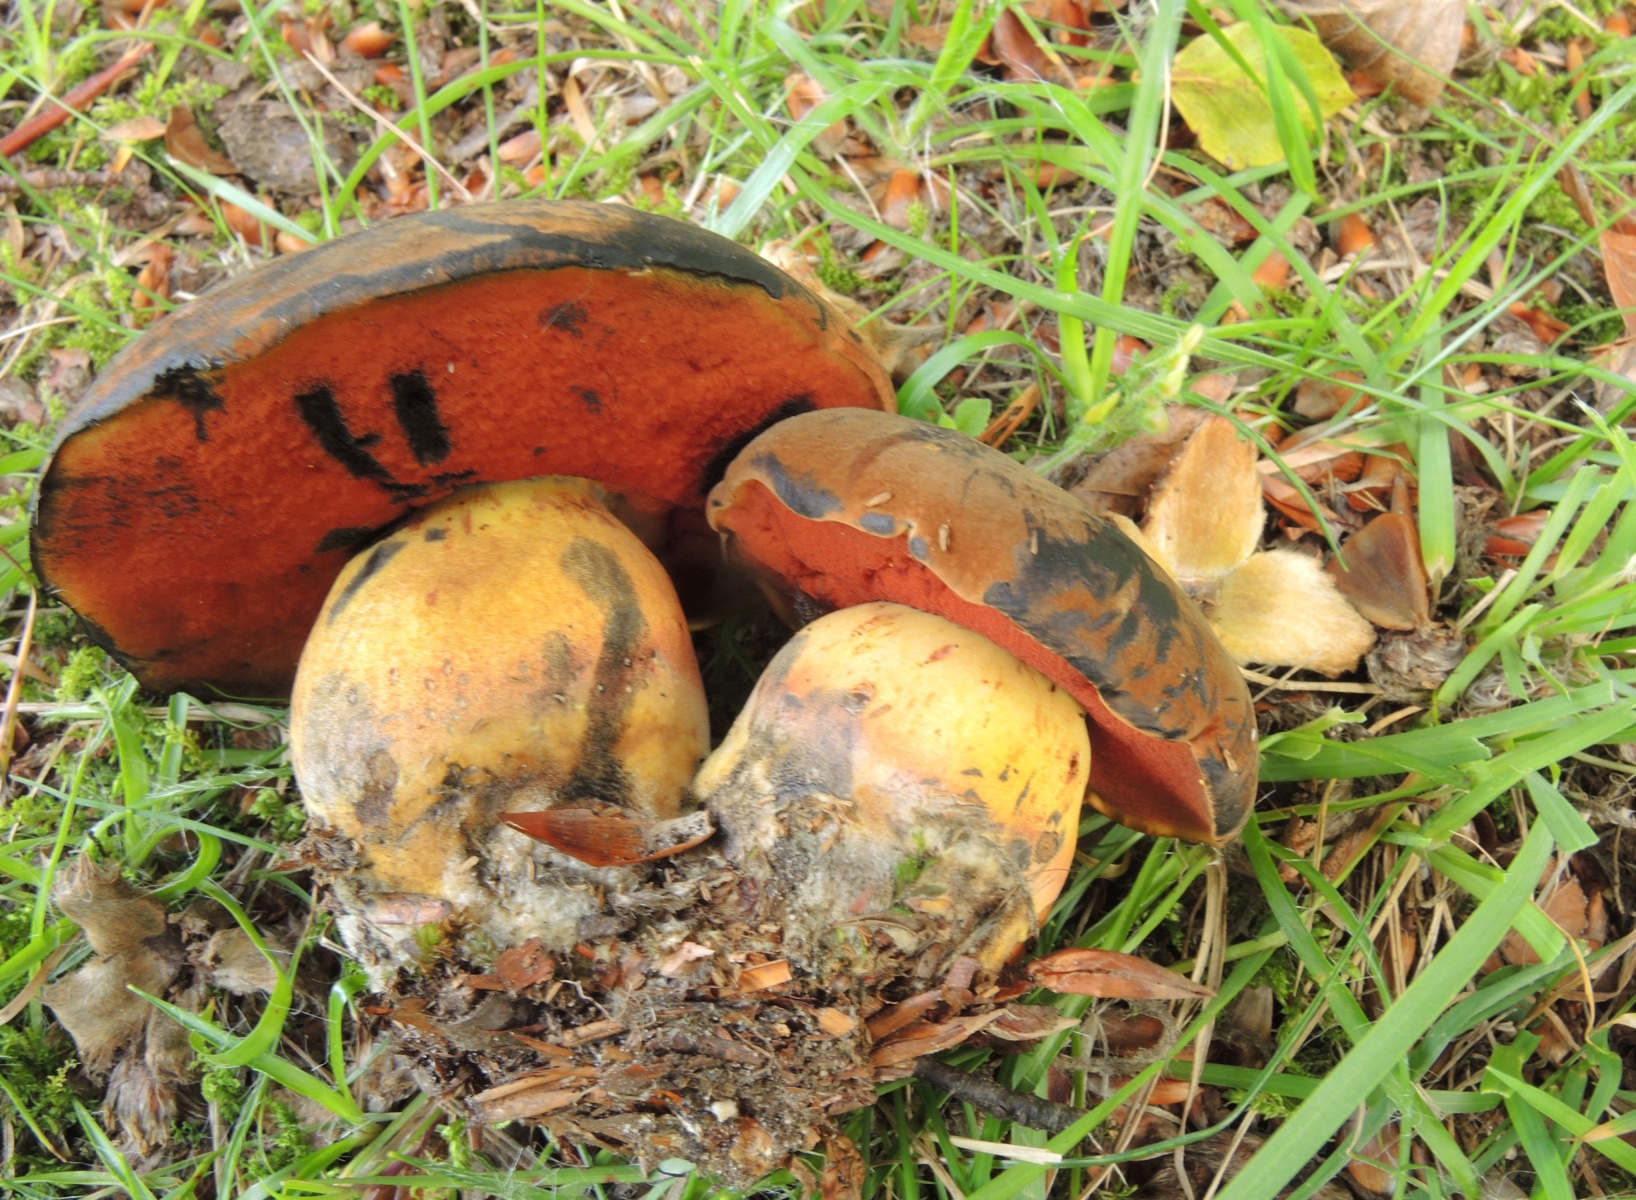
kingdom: Fungi
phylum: Basidiomycota
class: Agaricomycetes
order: Boletales
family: Boletaceae
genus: Neoboletus
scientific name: Neoboletus xanthopus
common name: finprikket indigorørhat
